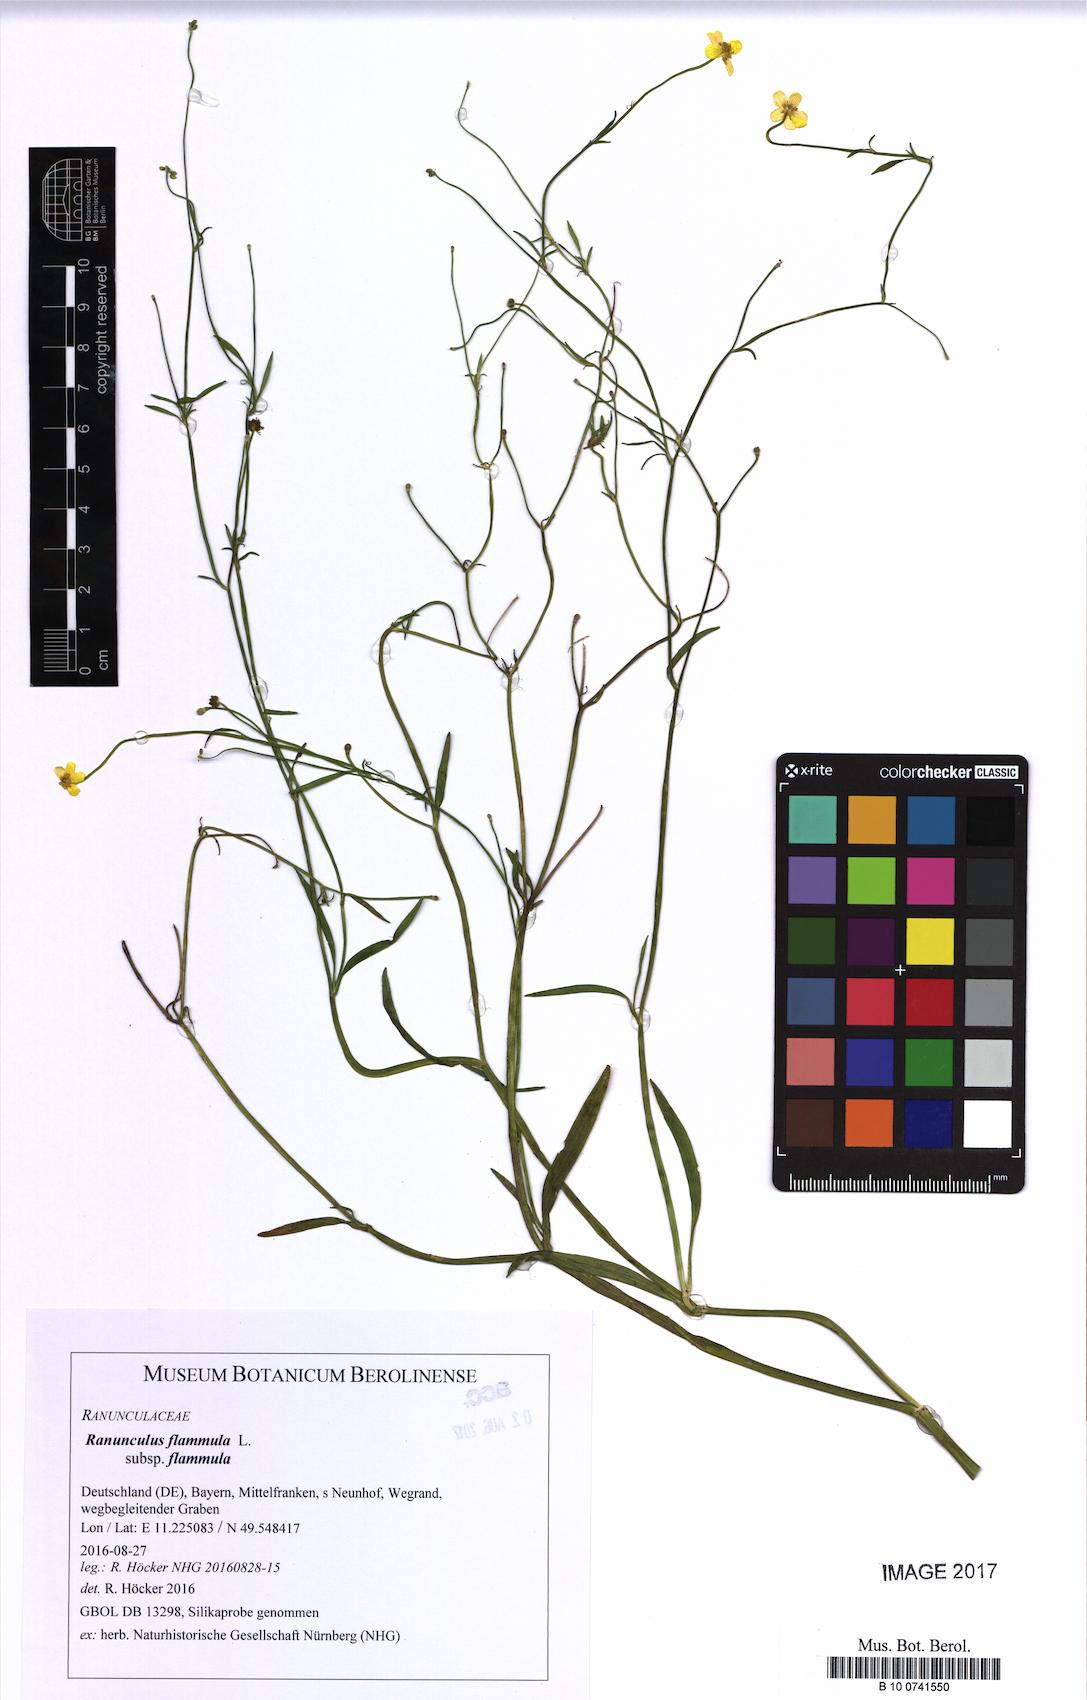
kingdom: Plantae
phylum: Tracheophyta
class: Magnoliopsida
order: Ranunculales
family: Ranunculaceae
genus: Ranunculus
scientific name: Ranunculus flammula
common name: Lesser spearwort
